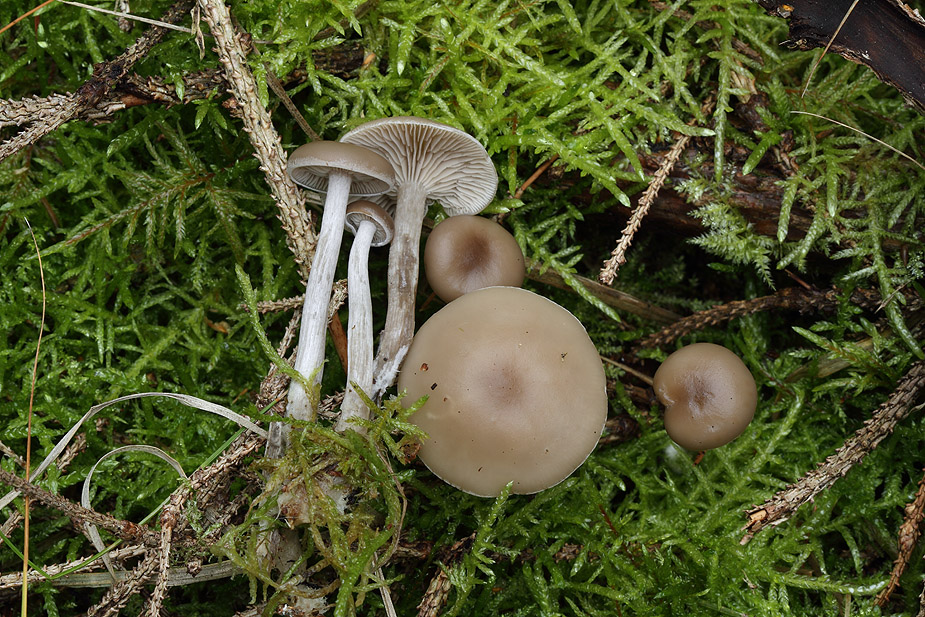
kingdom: Fungi
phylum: Basidiomycota
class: Agaricomycetes
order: Agaricales
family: Tricholomataceae
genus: Clitocybe
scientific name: Clitocybe metachroa
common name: grå tragthat
